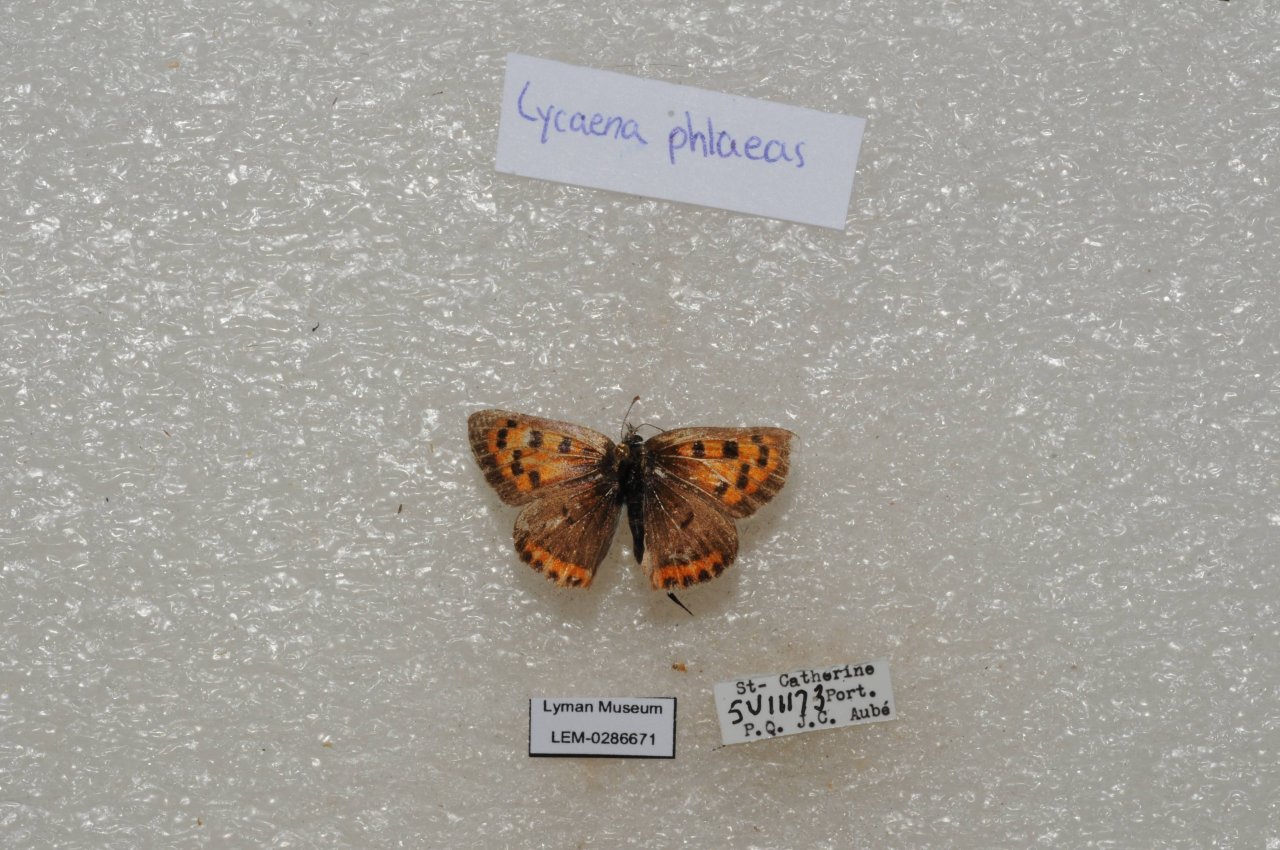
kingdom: Animalia
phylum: Arthropoda
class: Insecta
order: Lepidoptera
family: Lycaenidae
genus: Lycaena
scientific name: Lycaena phlaeas
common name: American Copper
